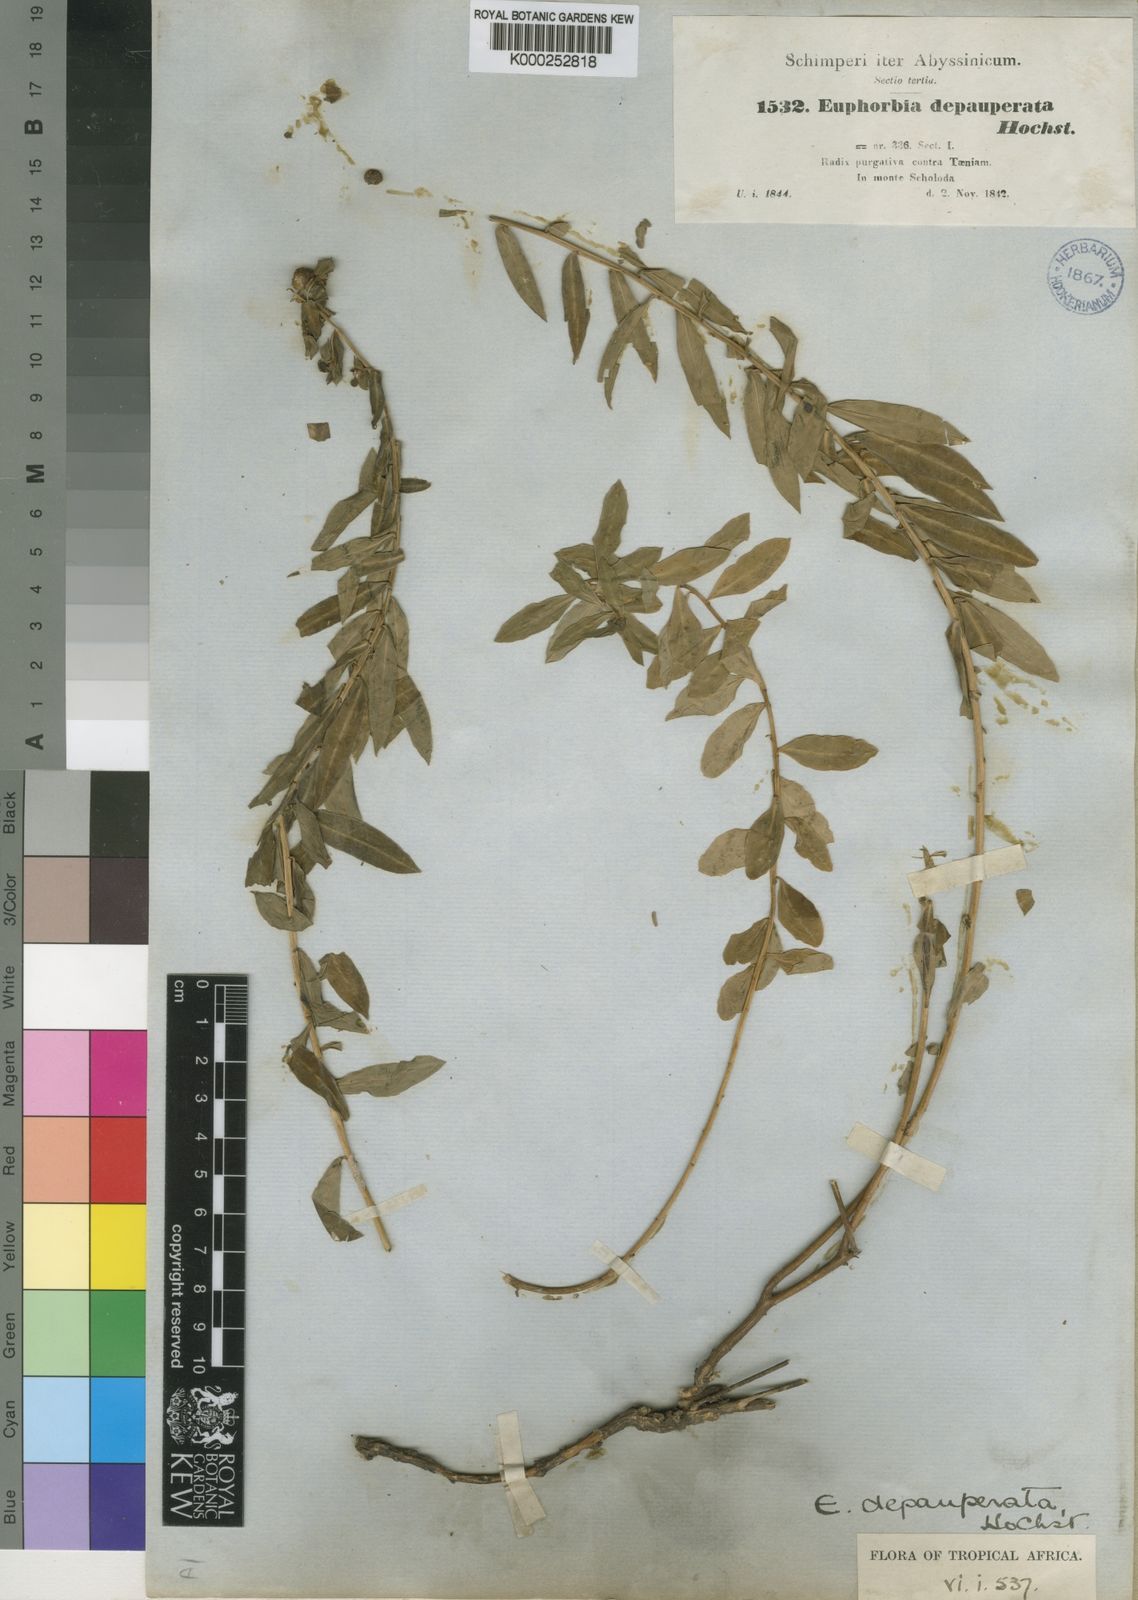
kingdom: Plantae
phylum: Tracheophyta
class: Magnoliopsida
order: Malpighiales
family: Euphorbiaceae
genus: Euphorbia
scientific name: Euphorbia
